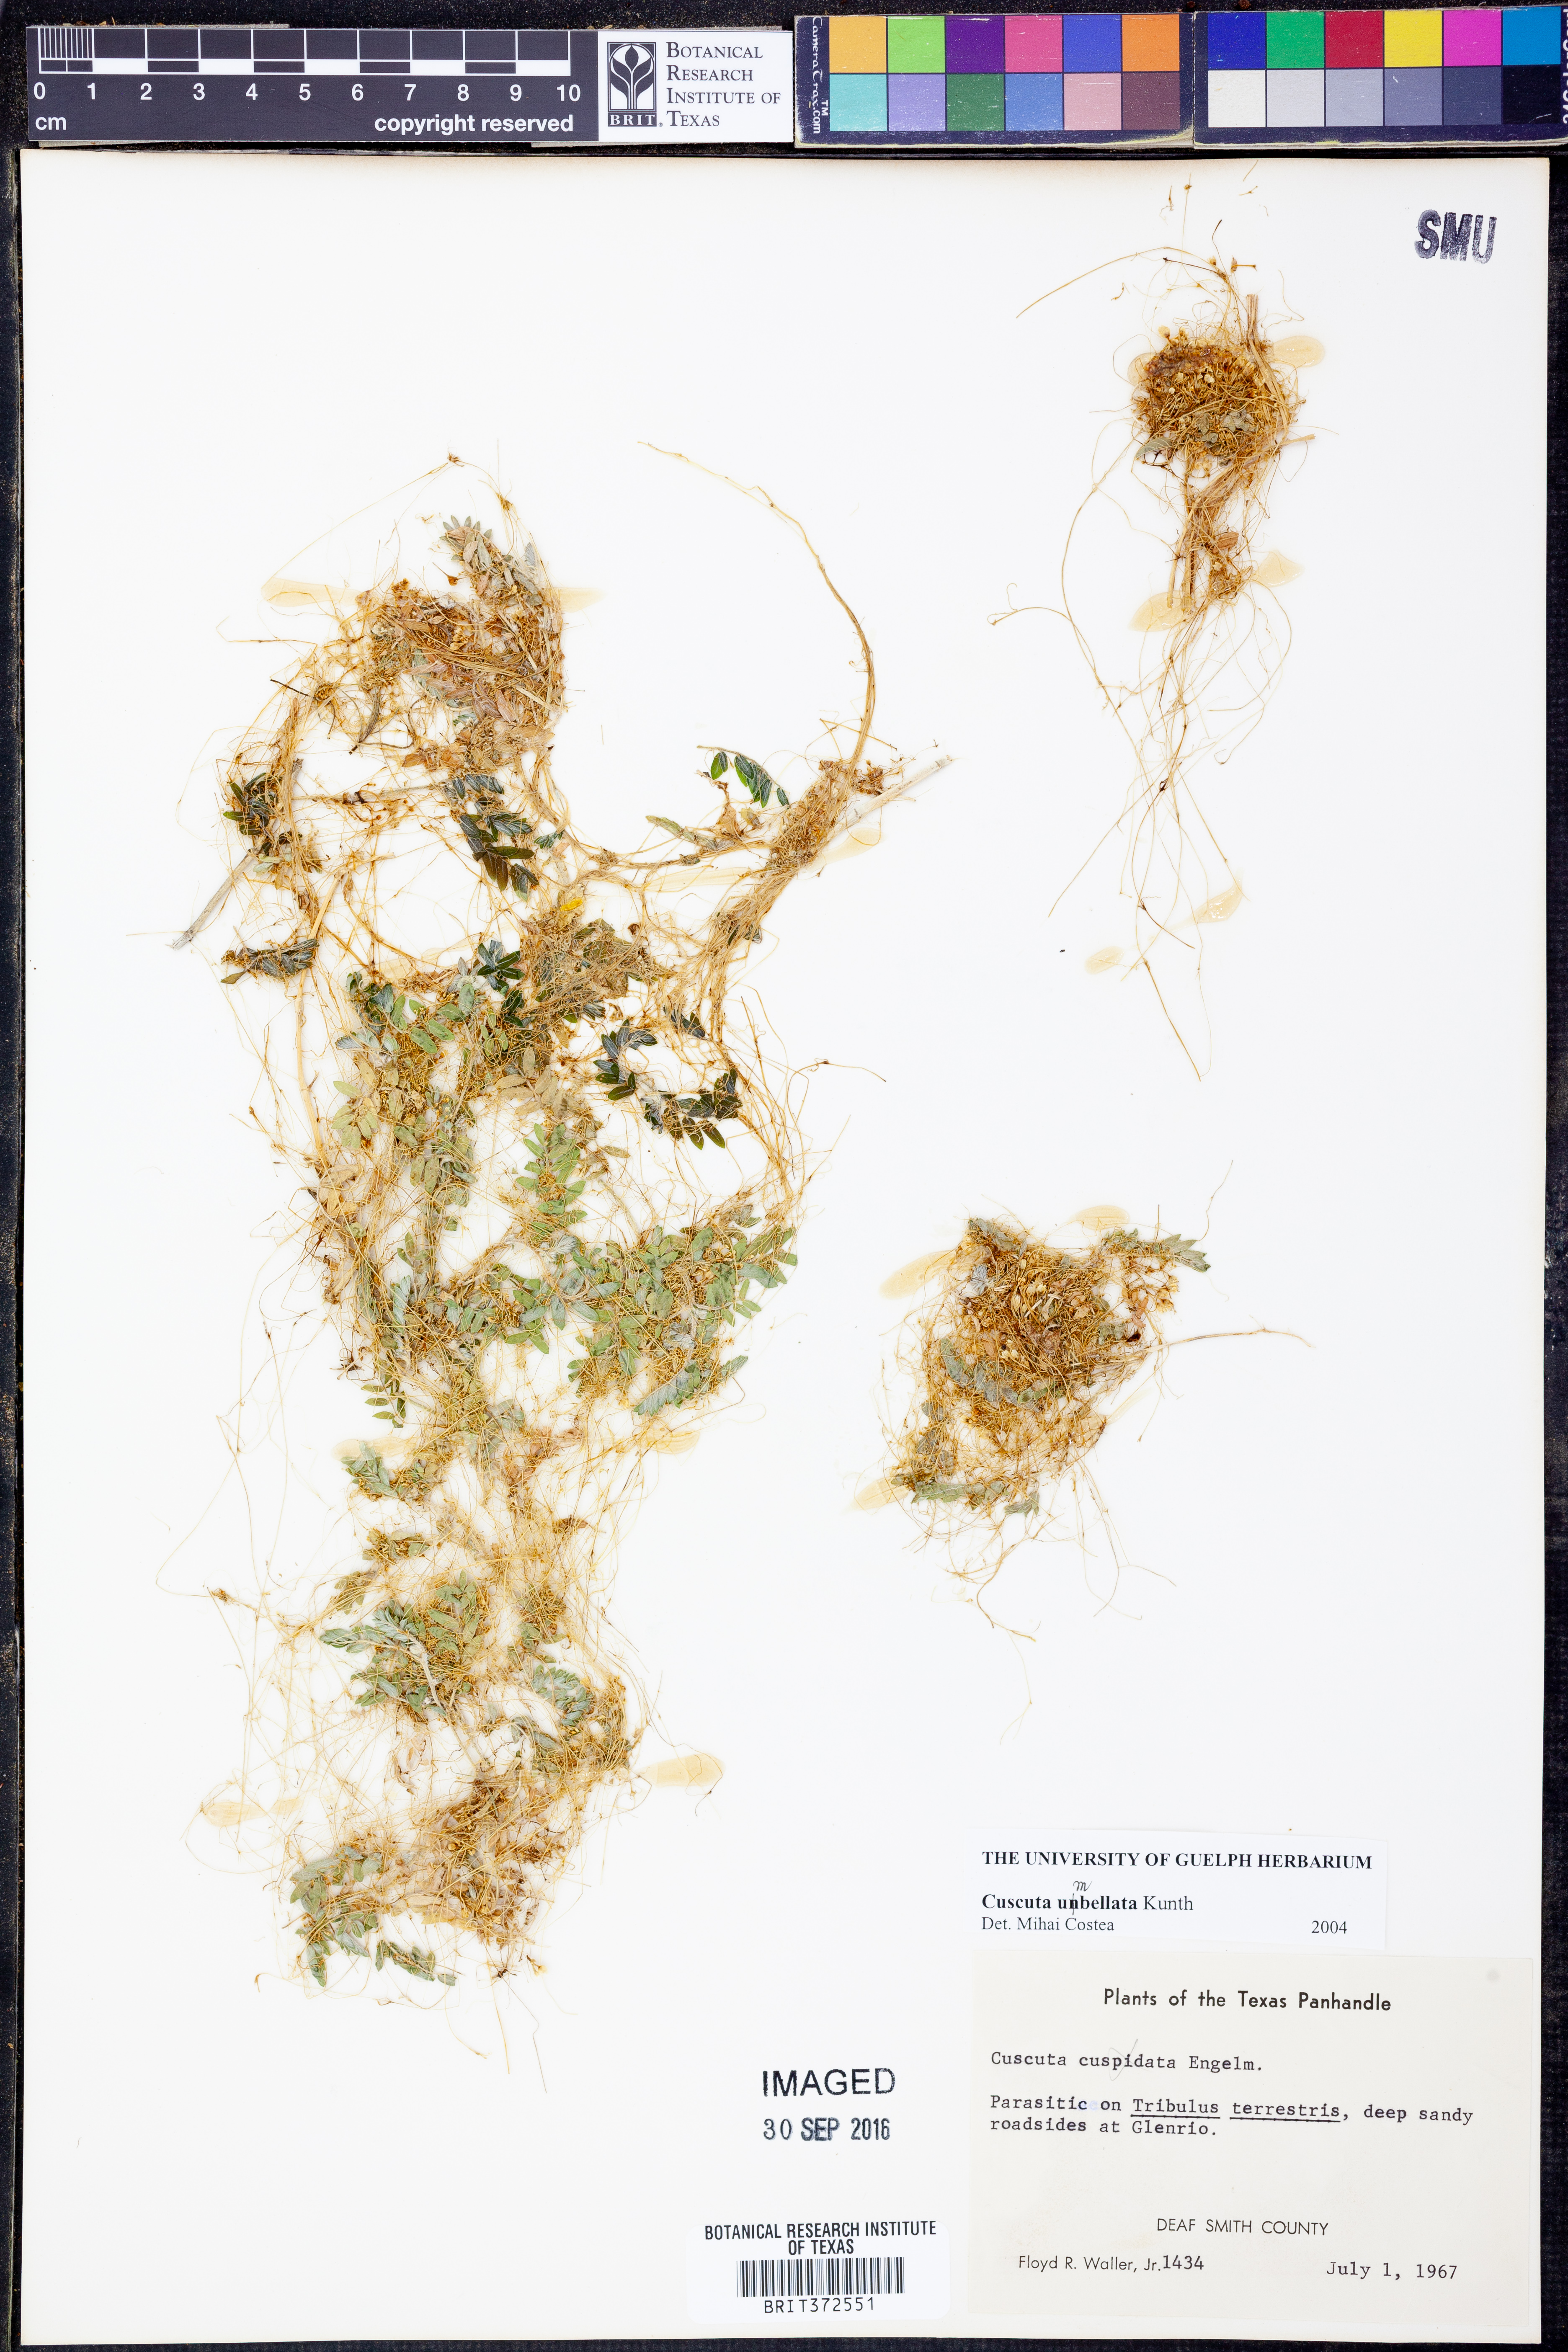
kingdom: Plantae
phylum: Tracheophyta
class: Magnoliopsida
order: Solanales
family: Convolvulaceae
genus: Cuscuta
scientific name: Cuscuta umbellata
